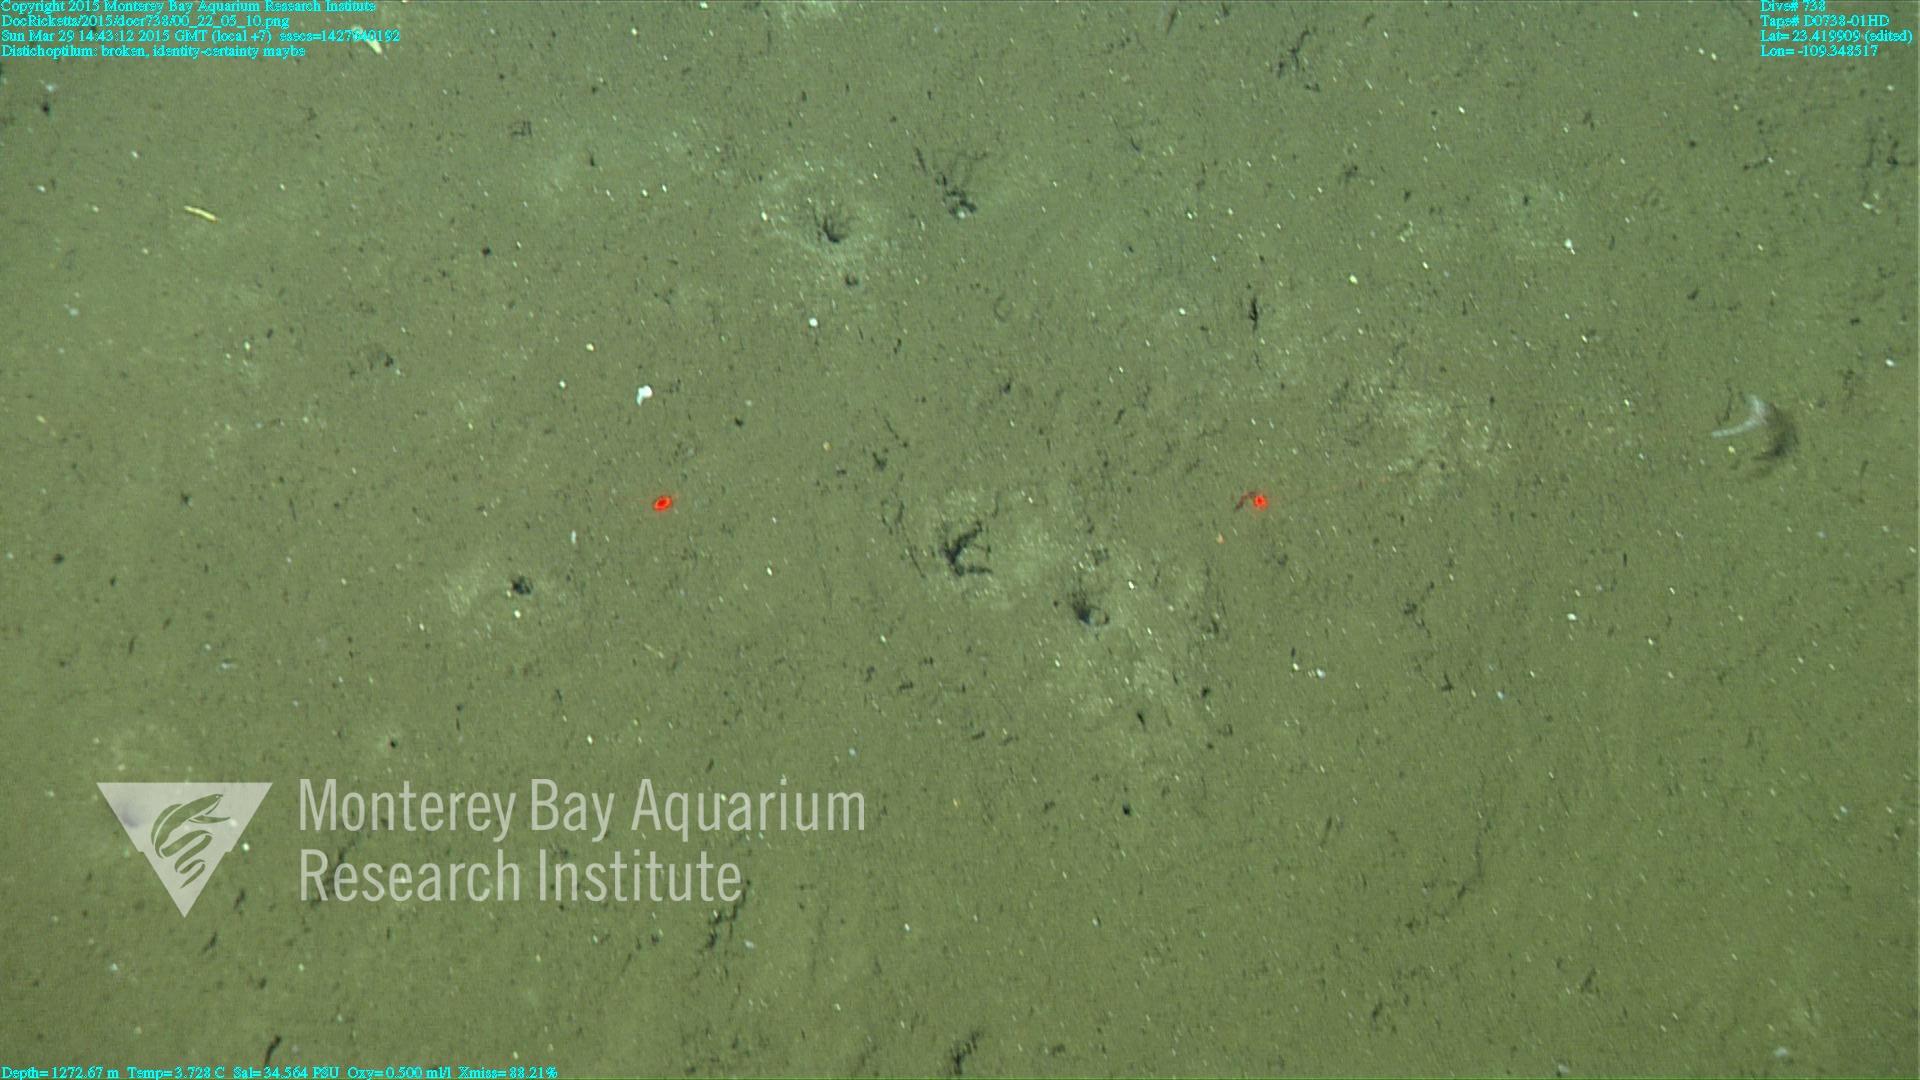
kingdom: Animalia
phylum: Cnidaria
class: Anthozoa
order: Scleralcyonacea
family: Protoptilidae
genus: Distichoptilum
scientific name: Distichoptilum
